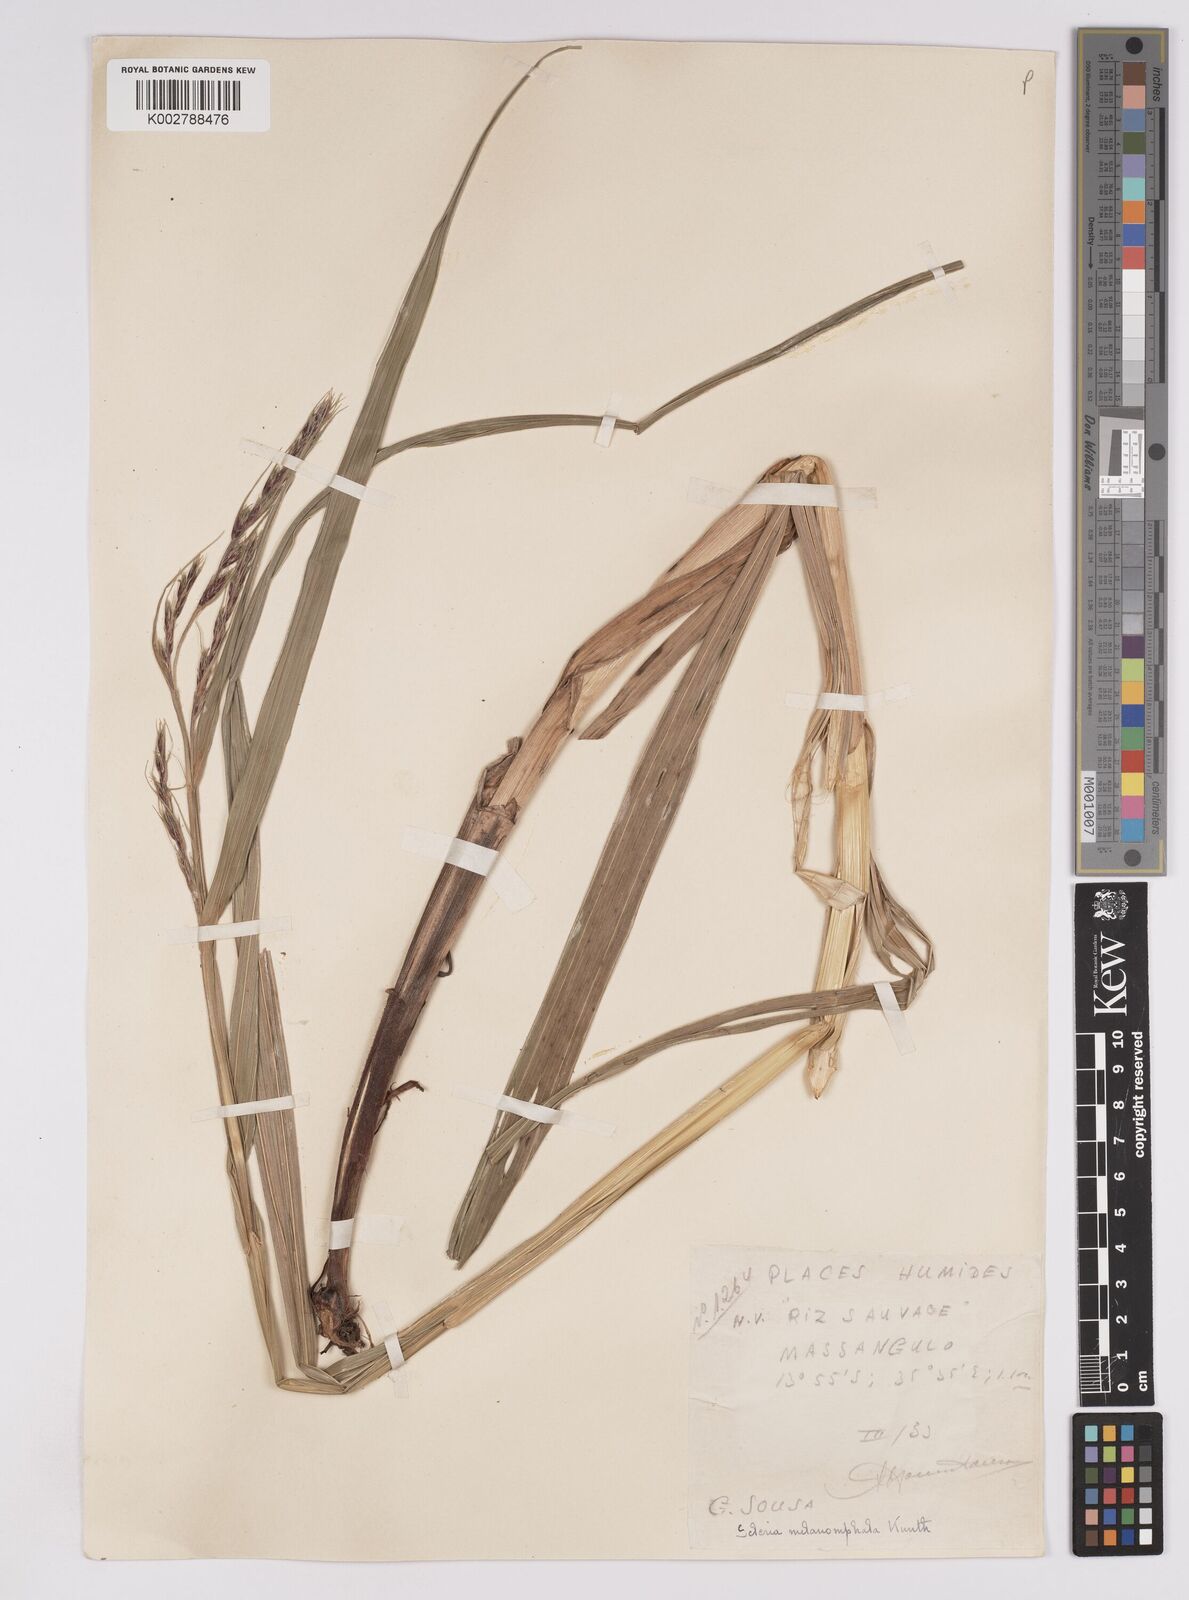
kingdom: Plantae
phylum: Tracheophyta
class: Liliopsida
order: Poales
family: Cyperaceae
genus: Scleria
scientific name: Scleria melanomphala
